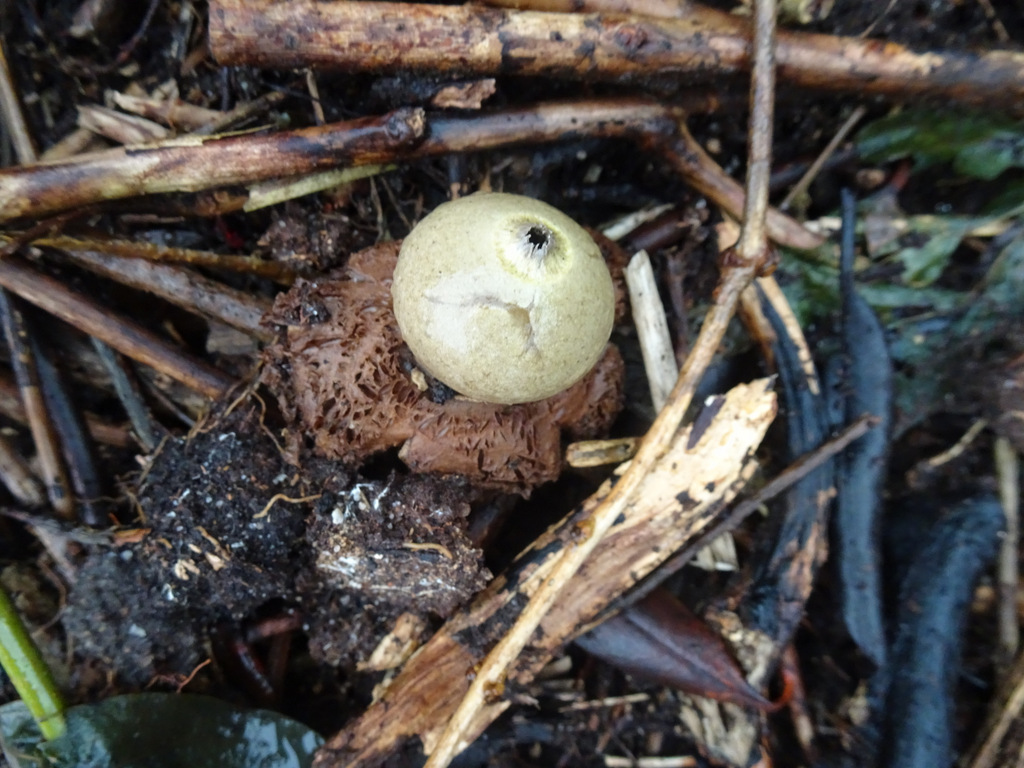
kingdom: Fungi
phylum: Basidiomycota
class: Agaricomycetes
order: Geastrales
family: Geastraceae
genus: Geastrum
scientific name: Geastrum michelianum
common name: kødet stjernebold
